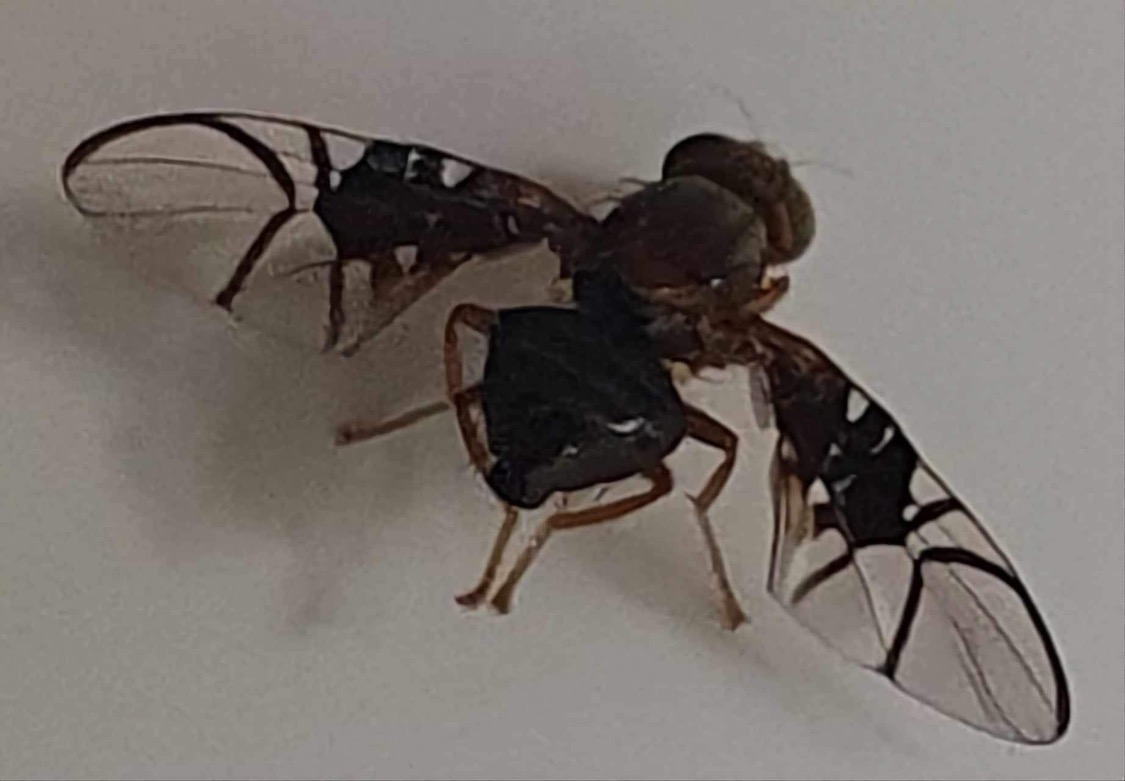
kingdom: Animalia
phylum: Arthropoda
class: Insecta
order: Diptera
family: Tephritidae
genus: Anomoia
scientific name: Anomoia purmunda
